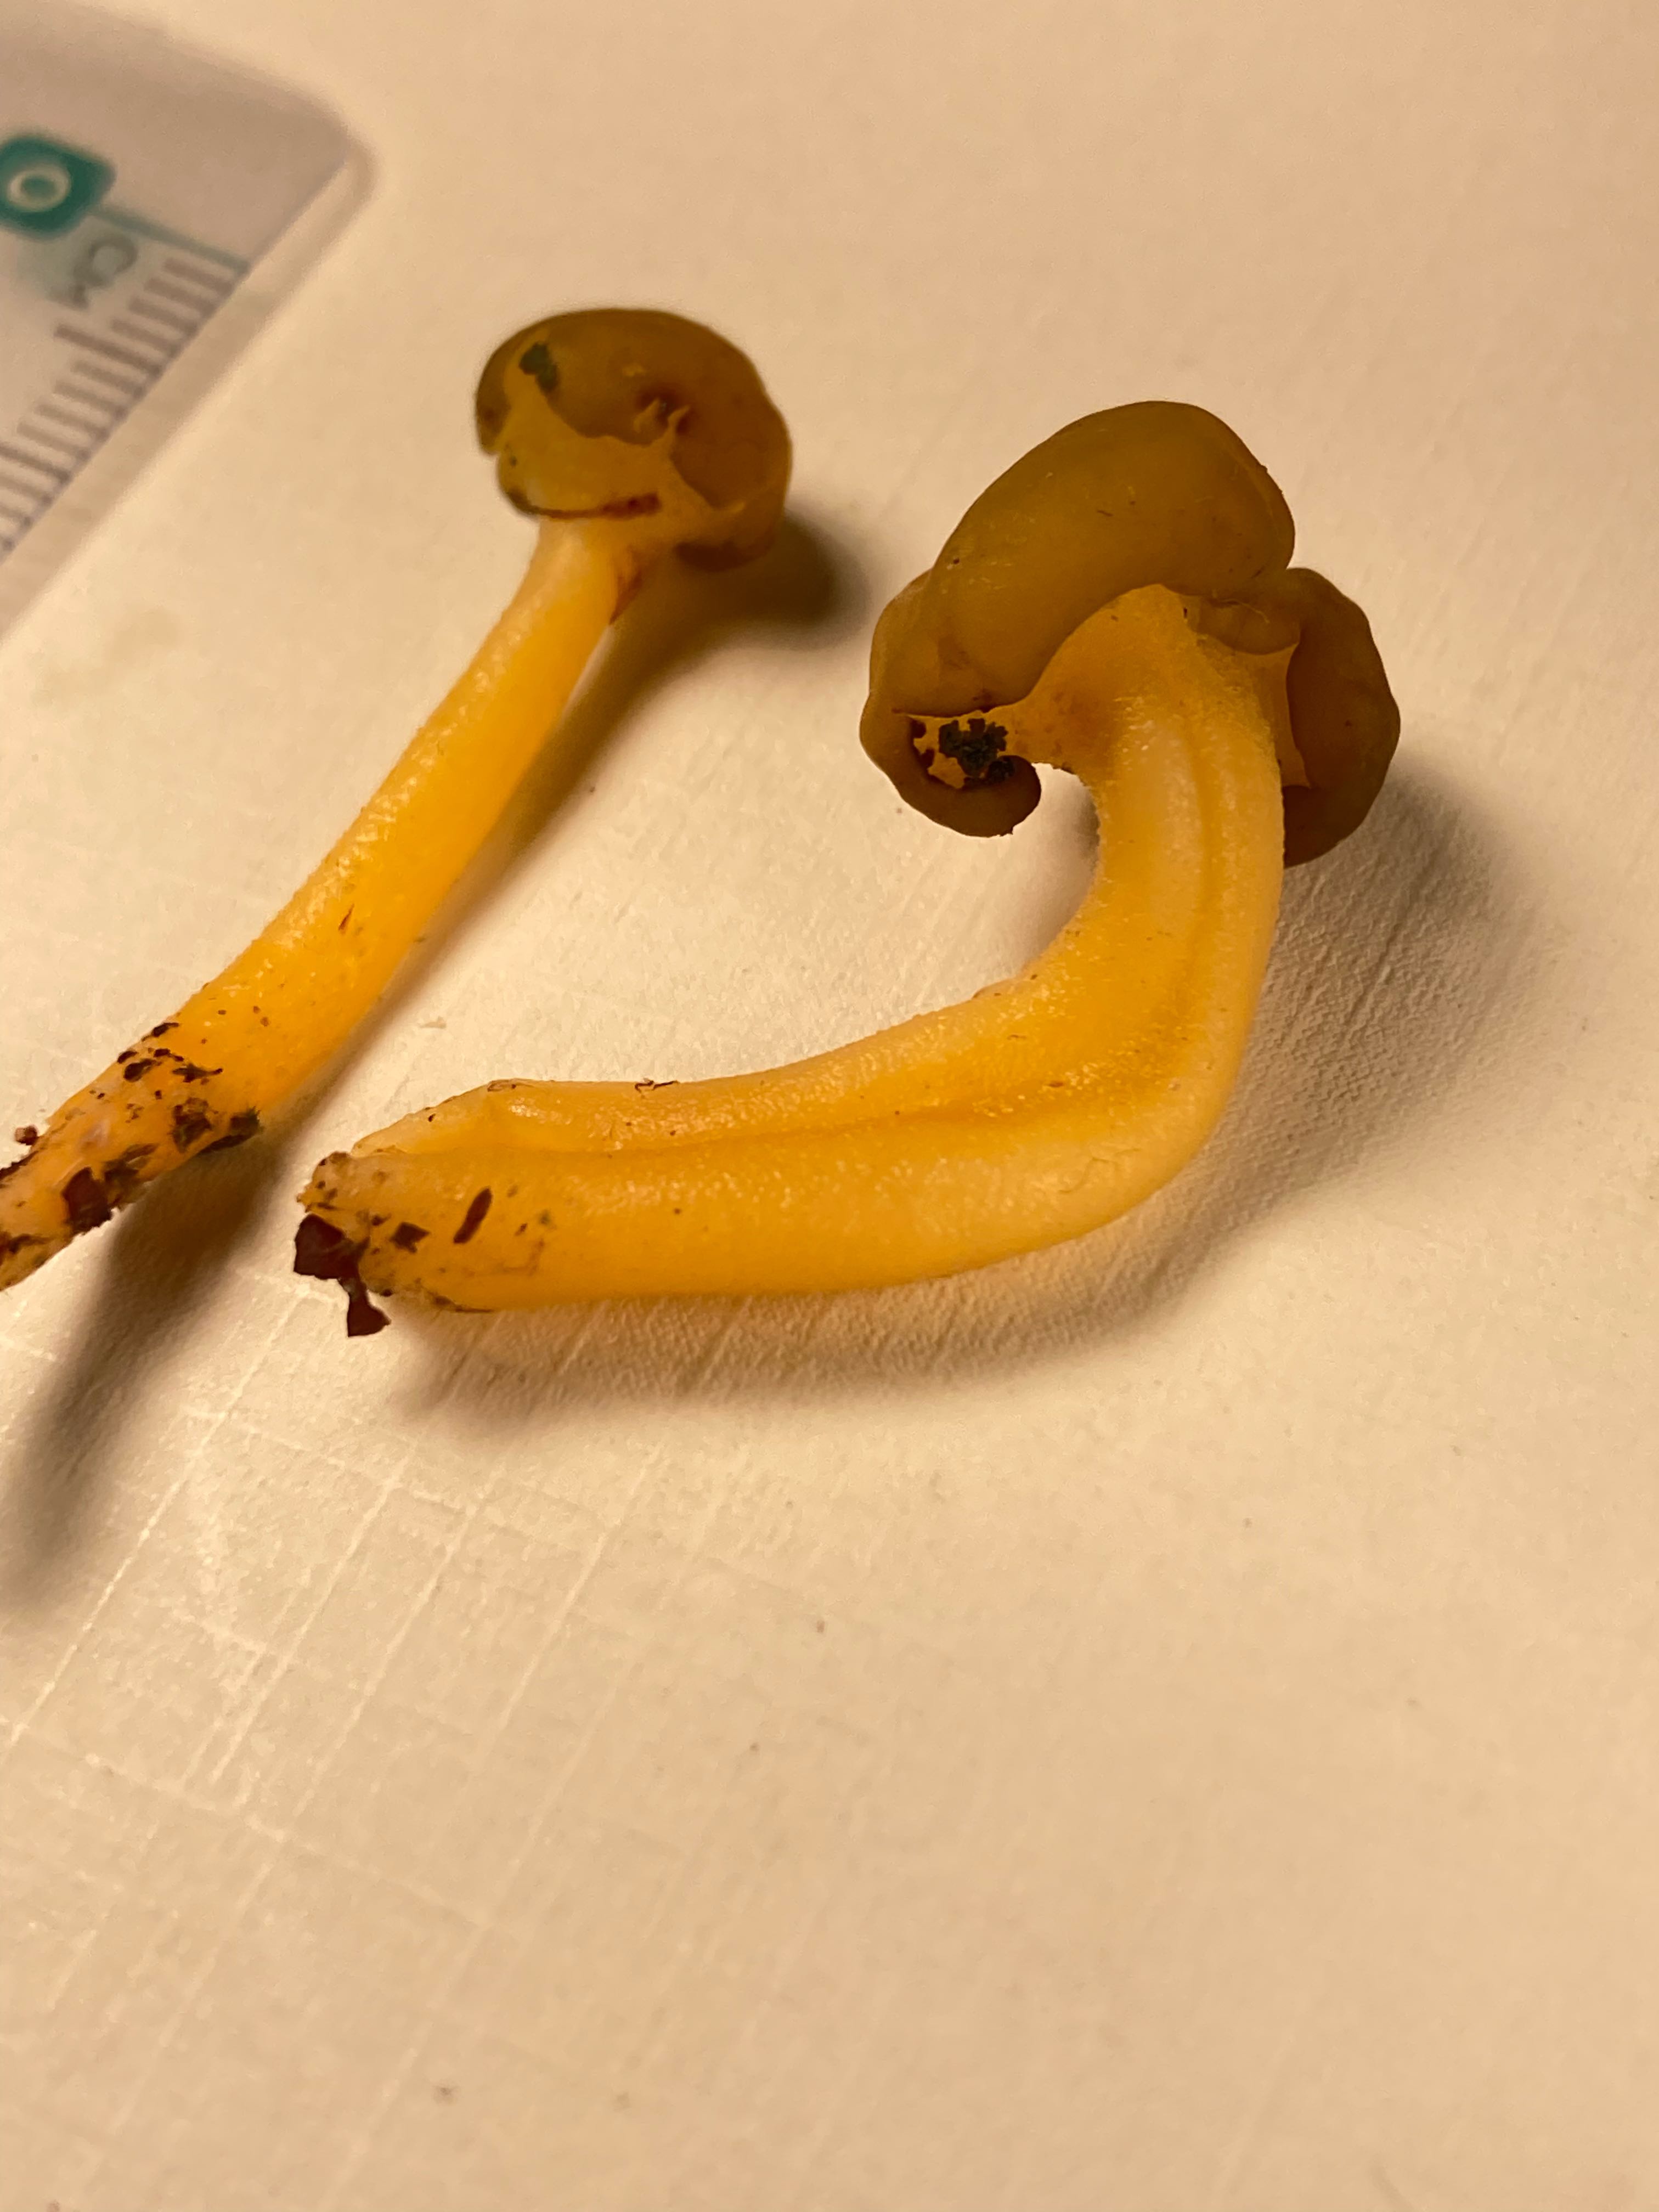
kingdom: Fungi
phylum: Ascomycota
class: Leotiomycetes
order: Leotiales
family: Leotiaceae
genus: Leotia
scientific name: Leotia lubrica
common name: ravsvamp
